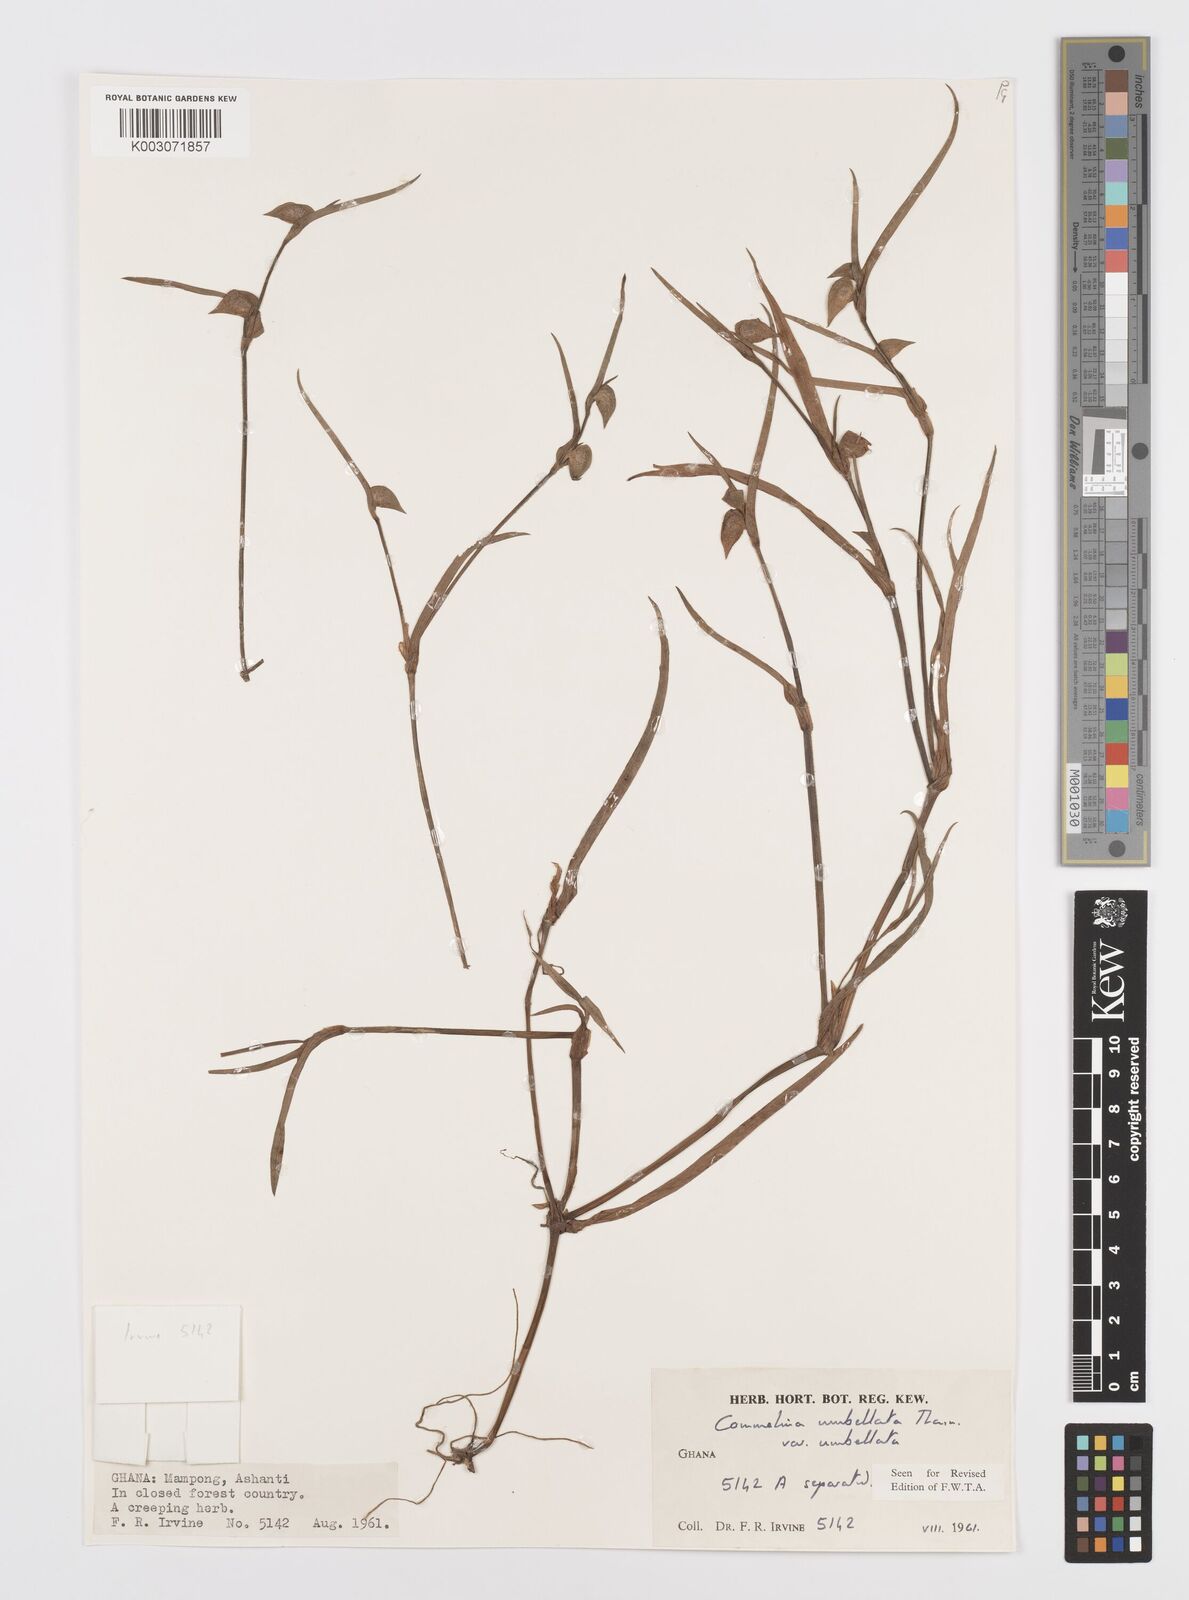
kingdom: Plantae
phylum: Tracheophyta
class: Liliopsida
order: Commelinales
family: Commelinaceae
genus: Commelina
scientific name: Commelina
